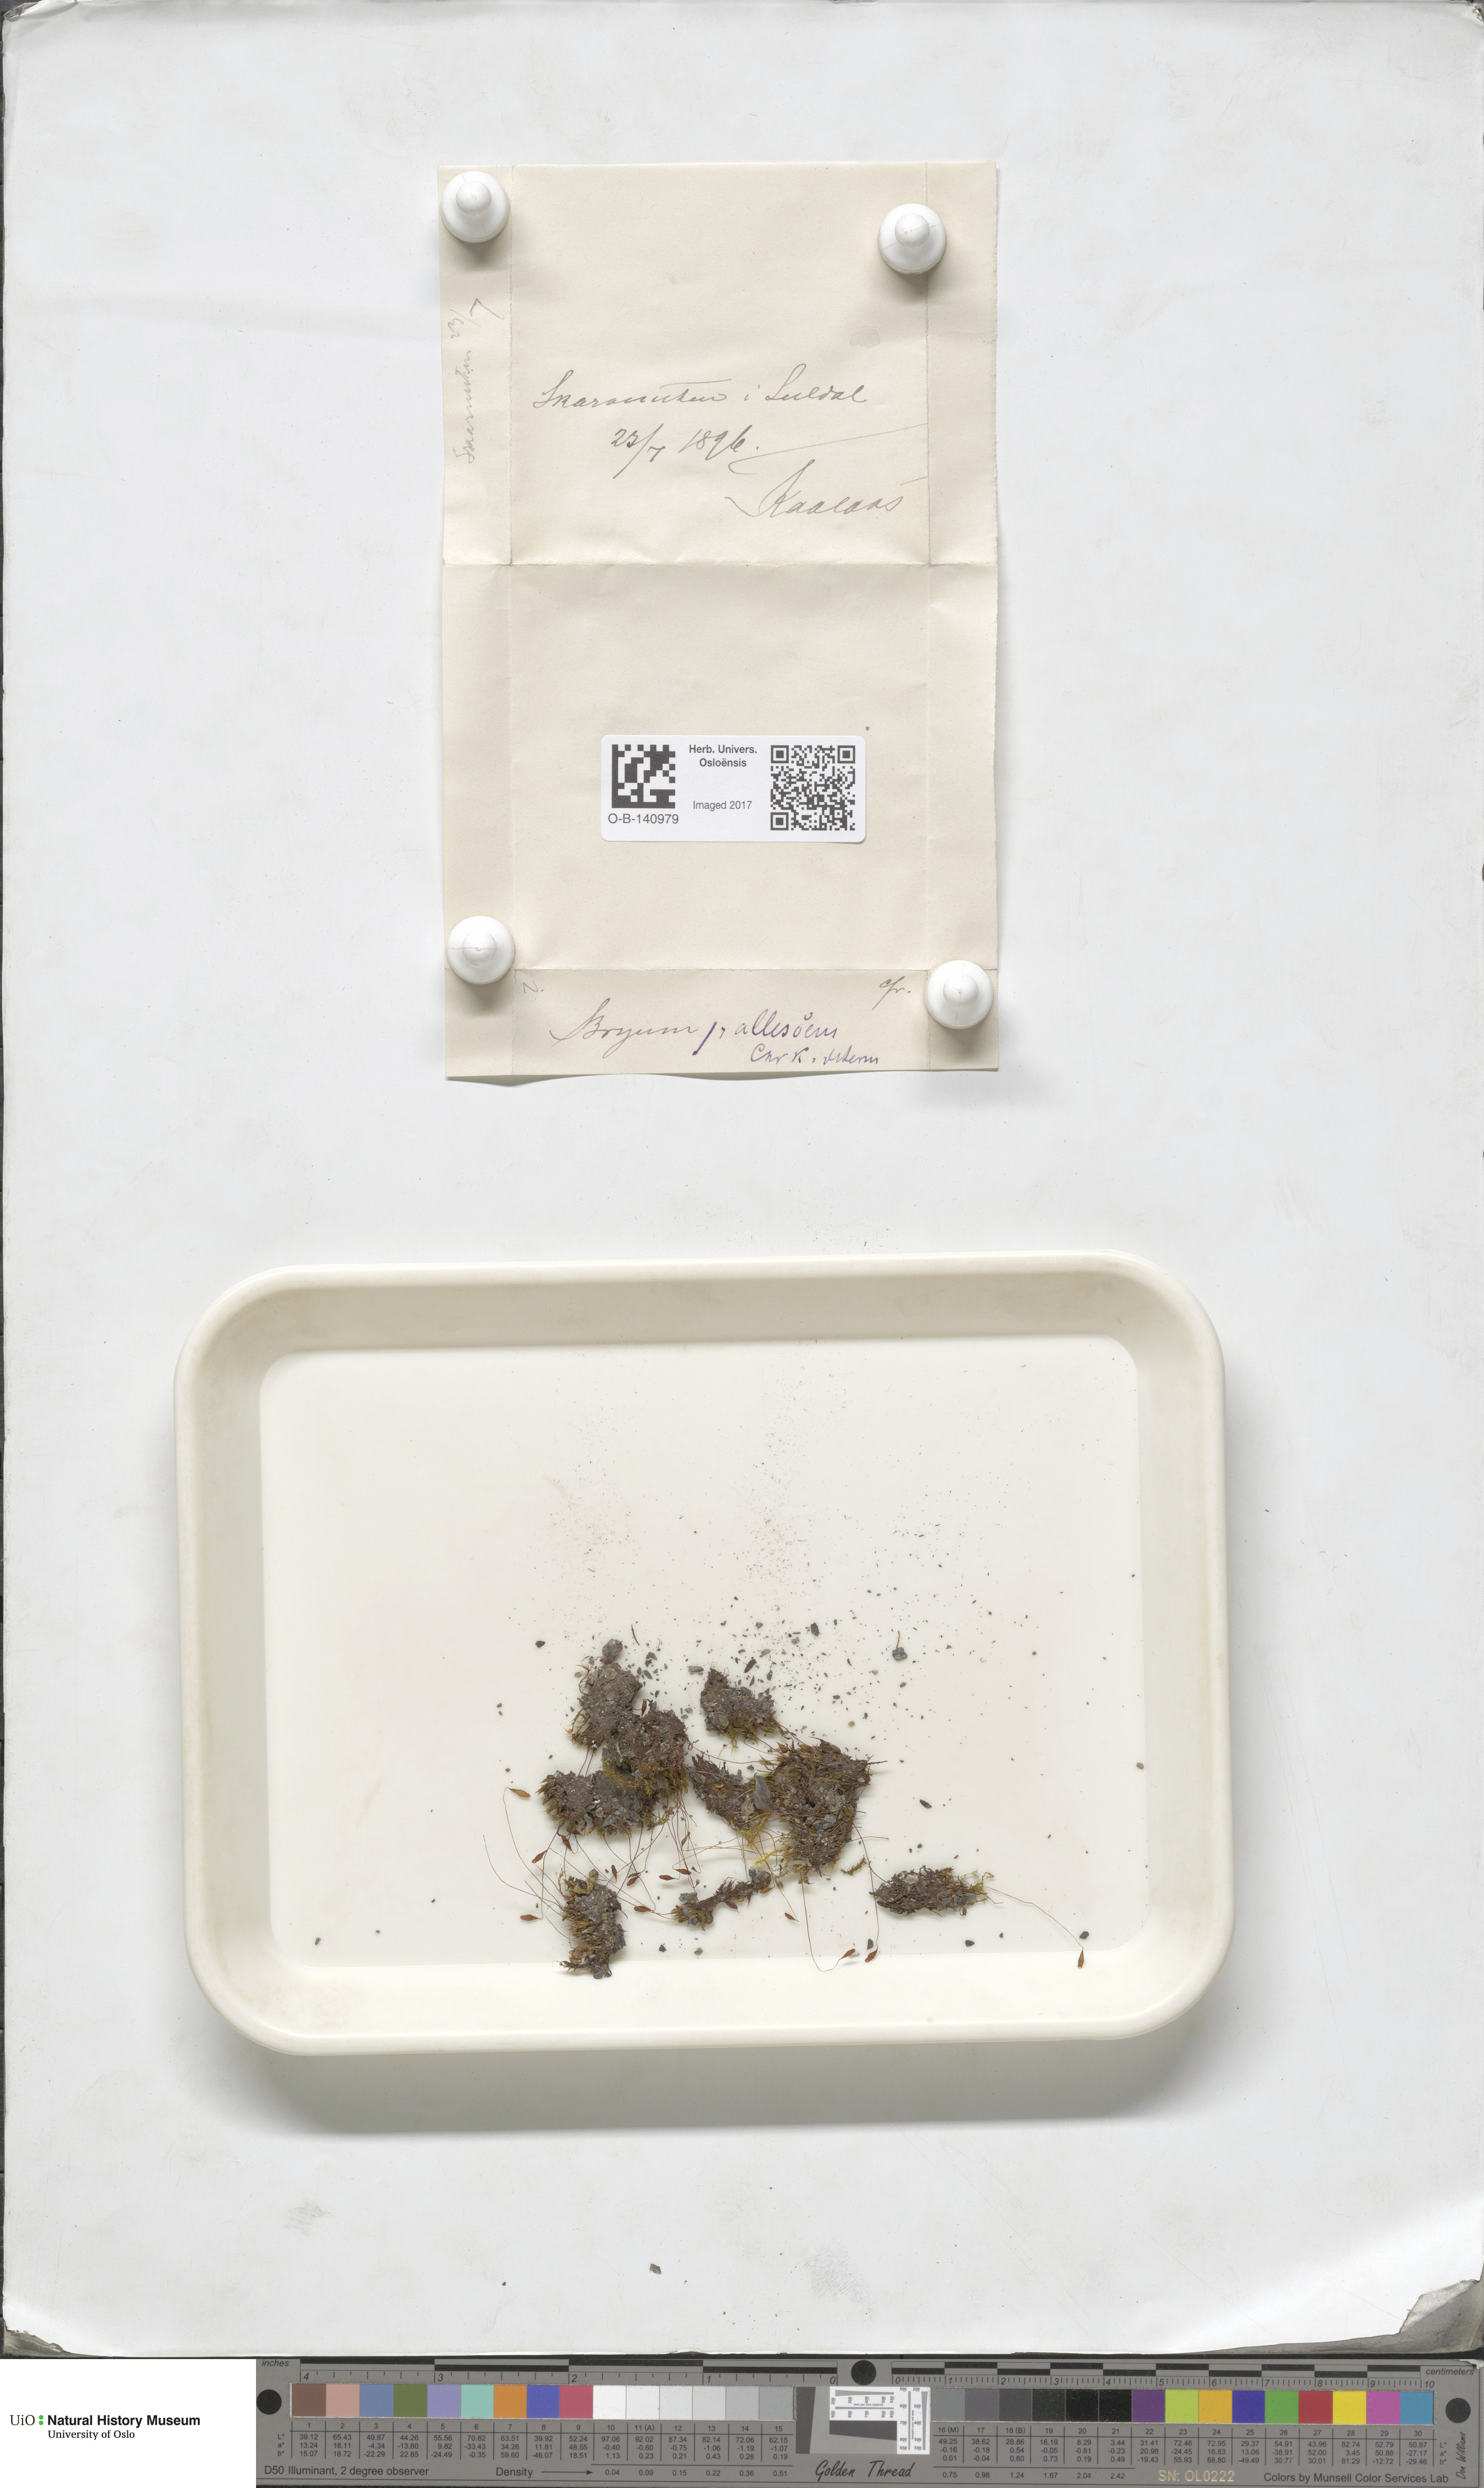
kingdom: Plantae
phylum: Bryophyta
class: Bryopsida
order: Bryales
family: Bryaceae
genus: Ptychostomum
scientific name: Ptychostomum pallescens
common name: Tall-clustered thread-moss
